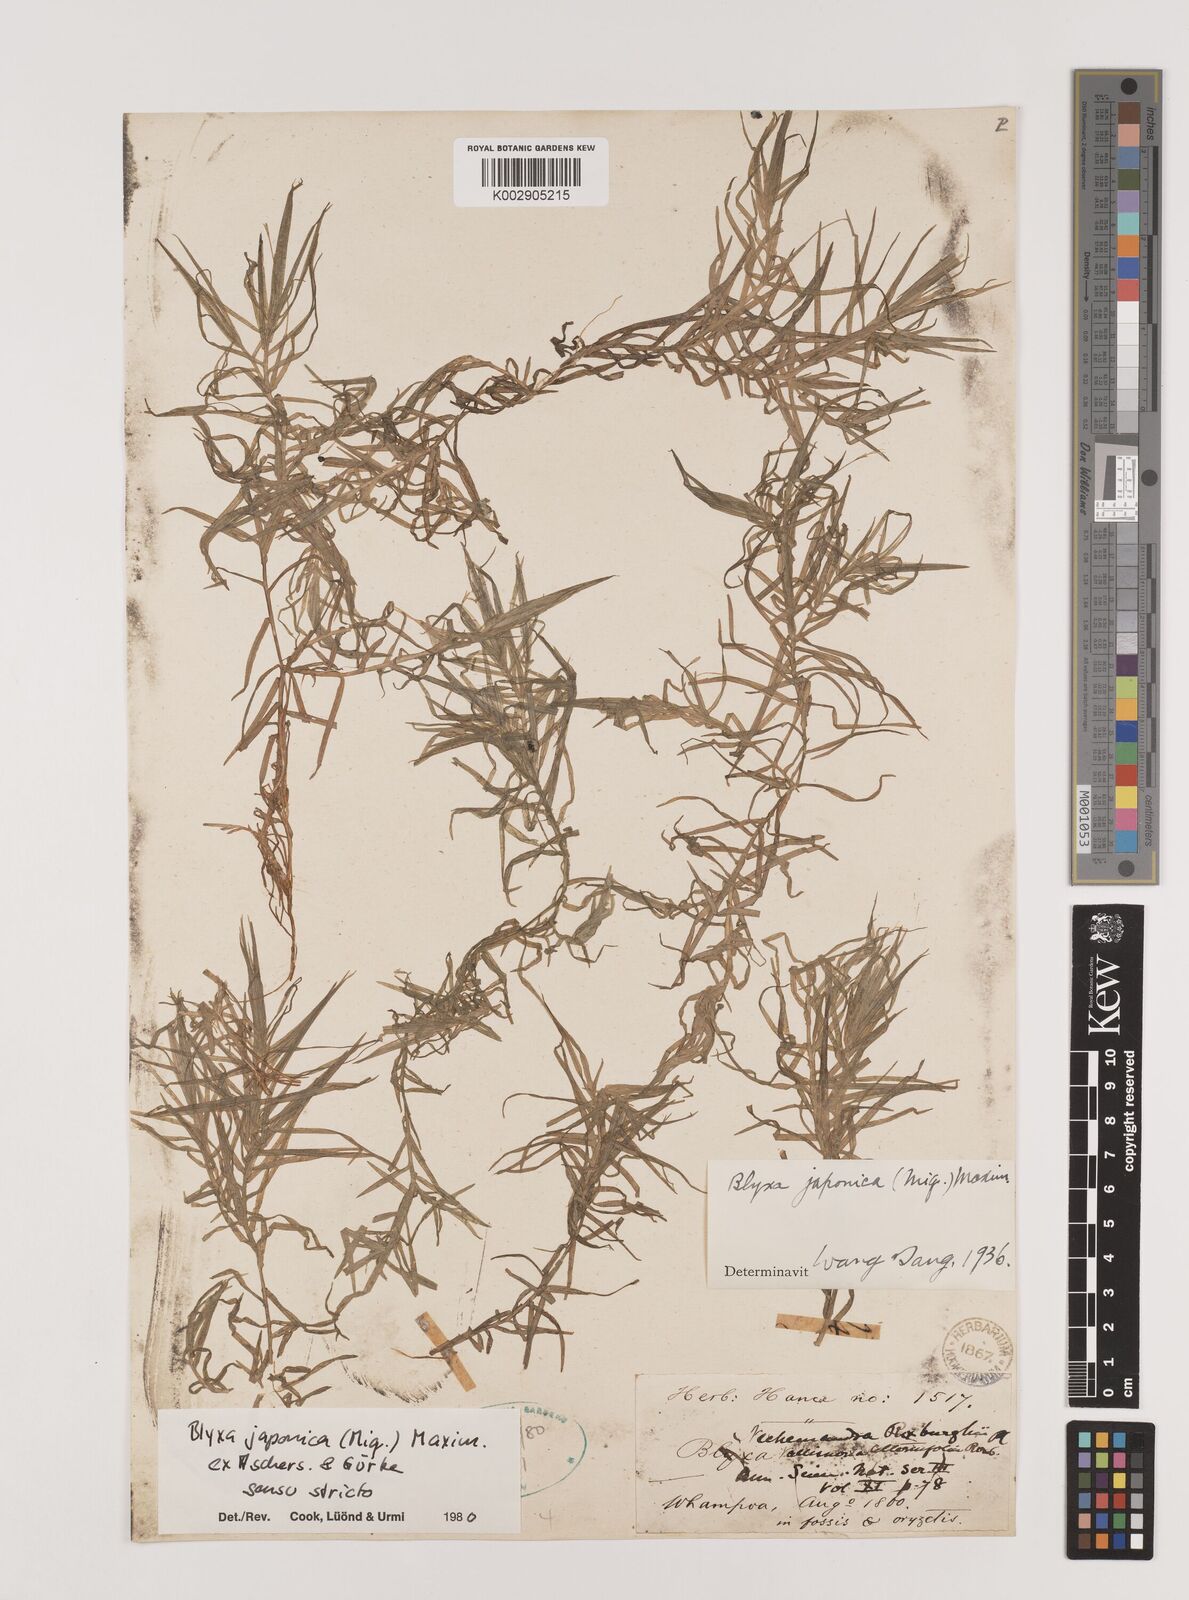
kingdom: Plantae
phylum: Tracheophyta
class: Liliopsida
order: Alismatales
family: Hydrocharitaceae
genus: Blyxa
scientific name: Blyxa japonica
